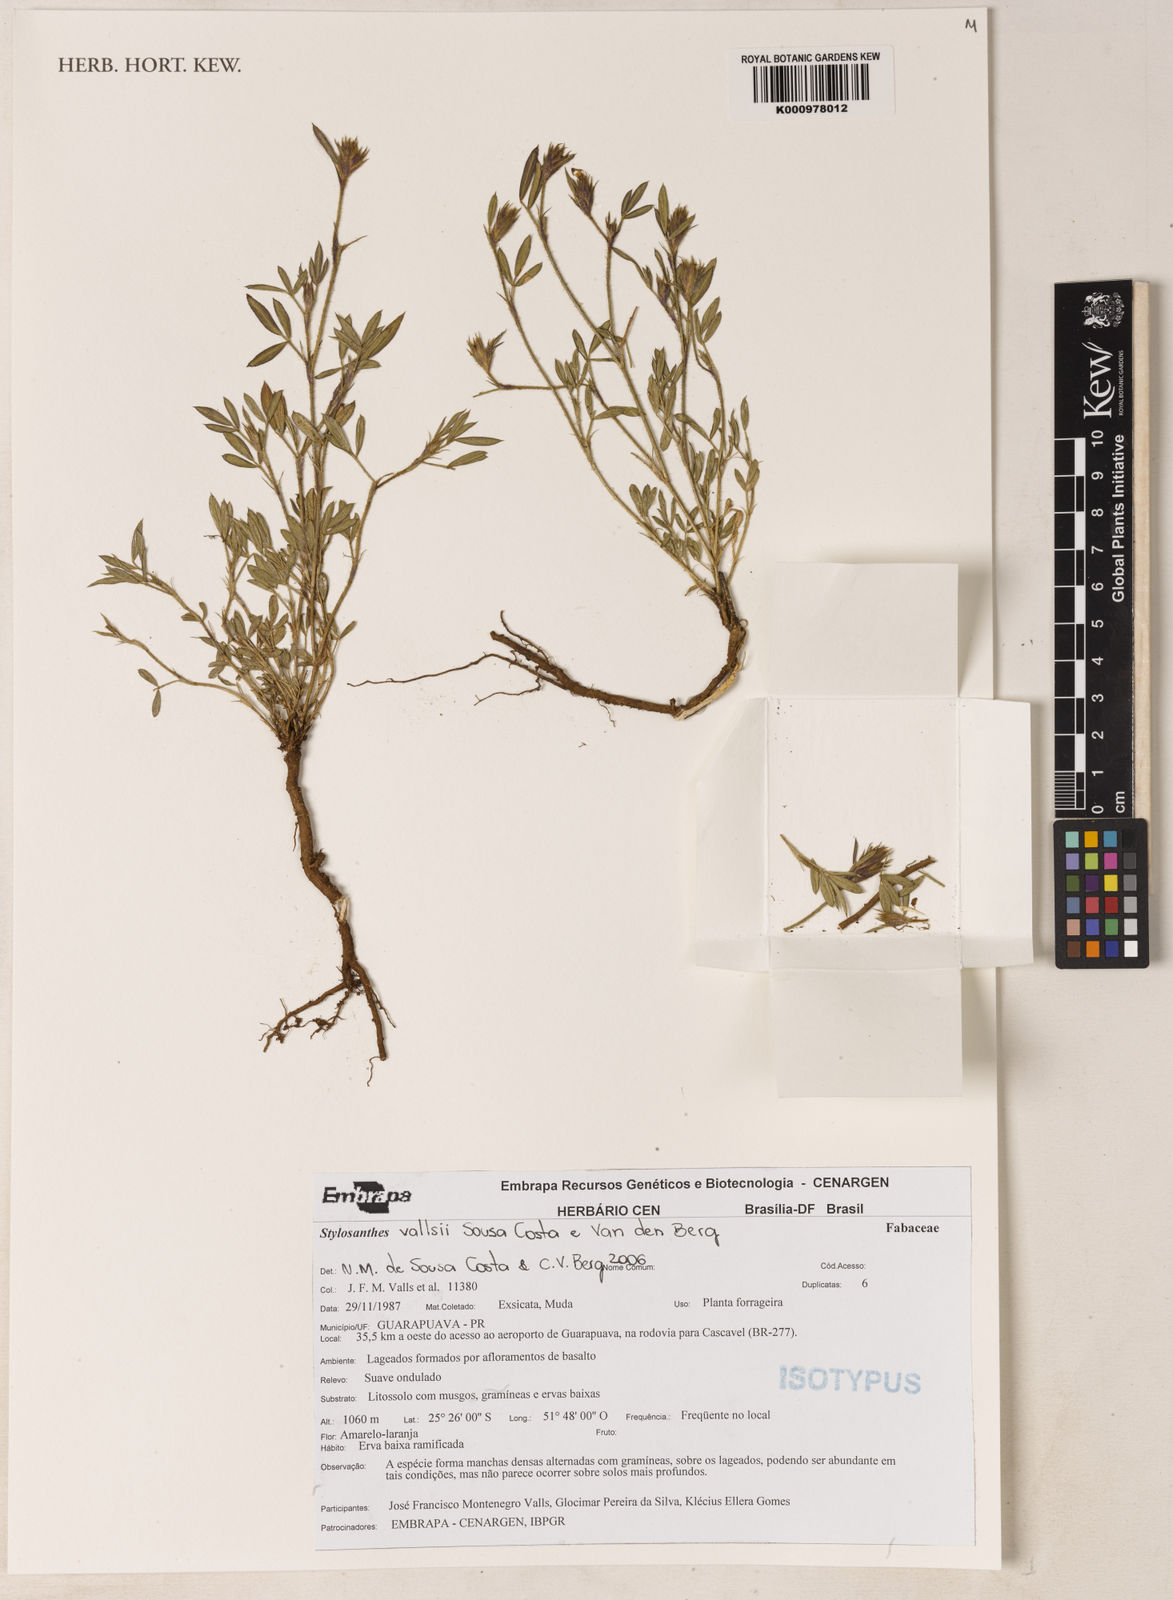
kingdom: Plantae
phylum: Tracheophyta
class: Magnoliopsida
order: Fabales
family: Fabaceae
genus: Stylosanthes
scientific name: Stylosanthes vallsii
